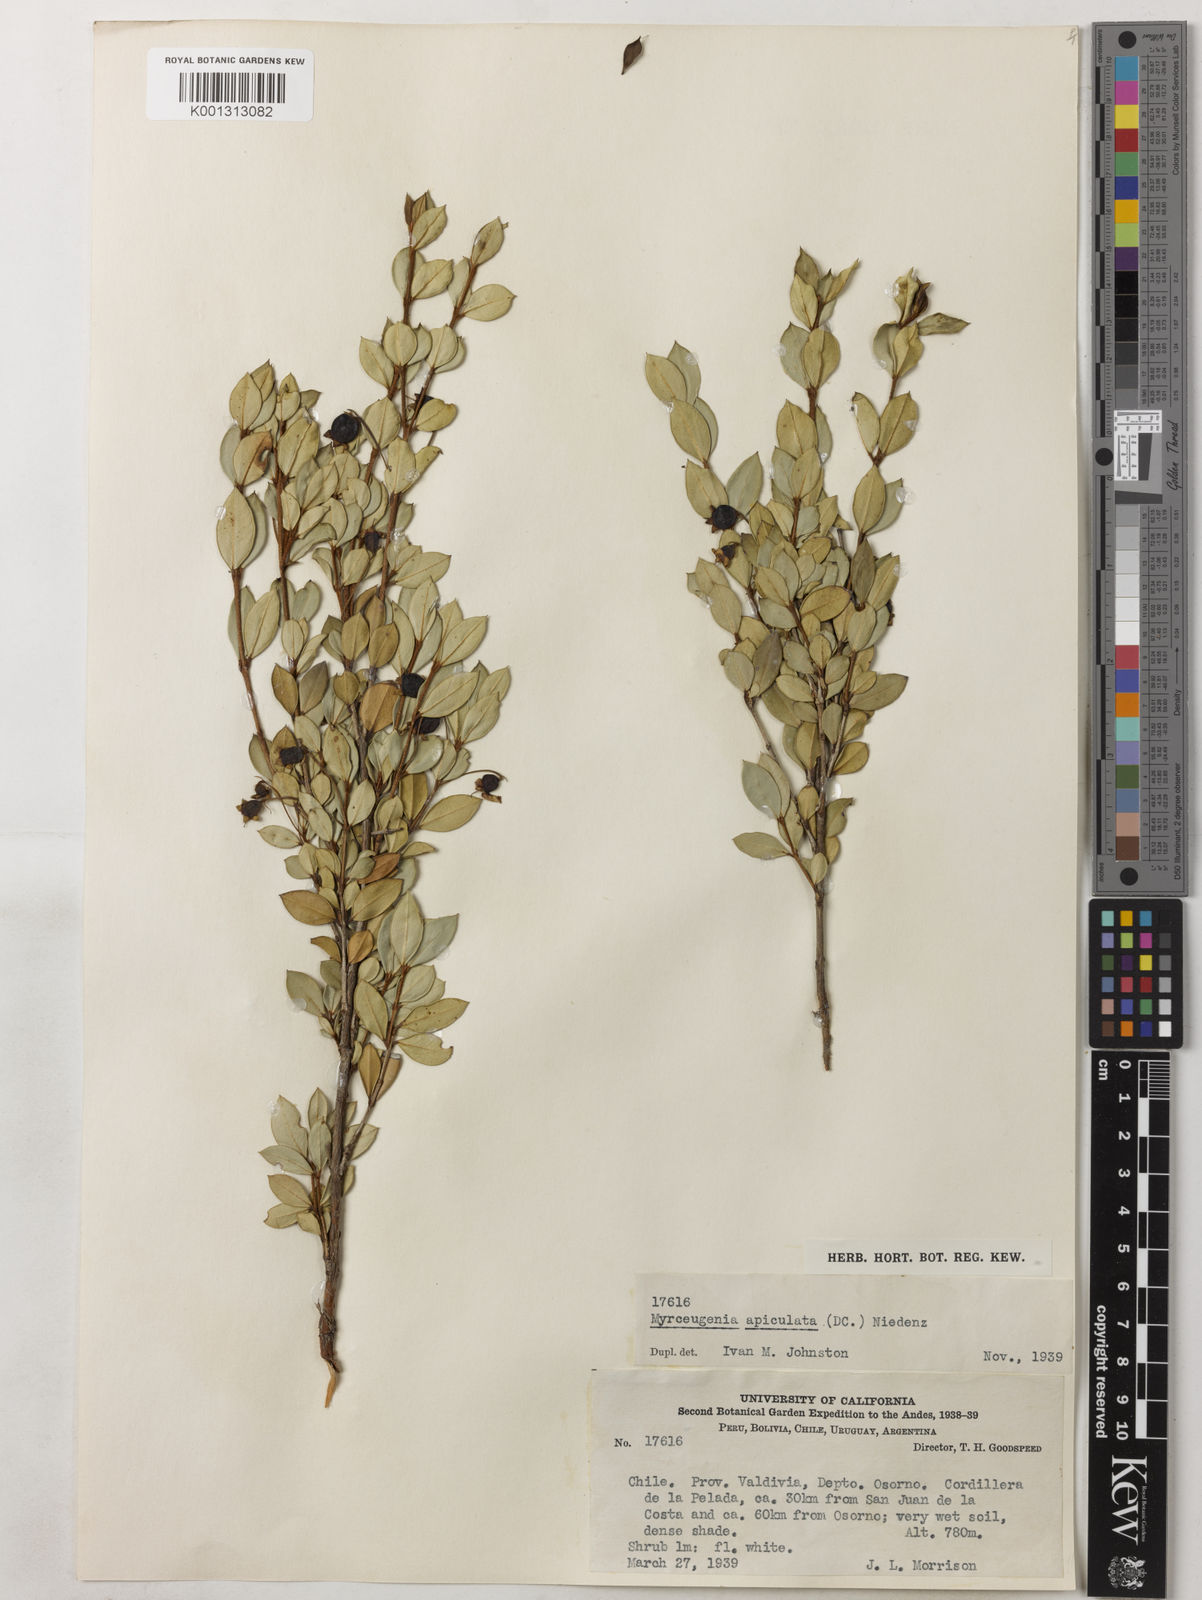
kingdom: Plantae
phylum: Tracheophyta
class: Magnoliopsida
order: Myrtales
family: Myrtaceae
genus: Luma
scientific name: Luma apiculata
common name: Chilean myrtle
